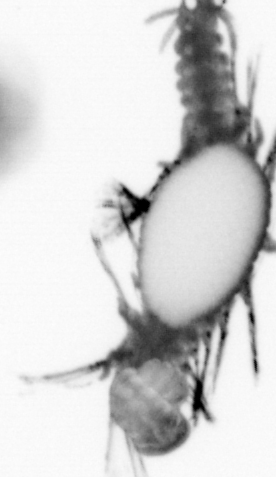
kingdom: Animalia
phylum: Annelida
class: Polychaeta
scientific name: Polychaeta
